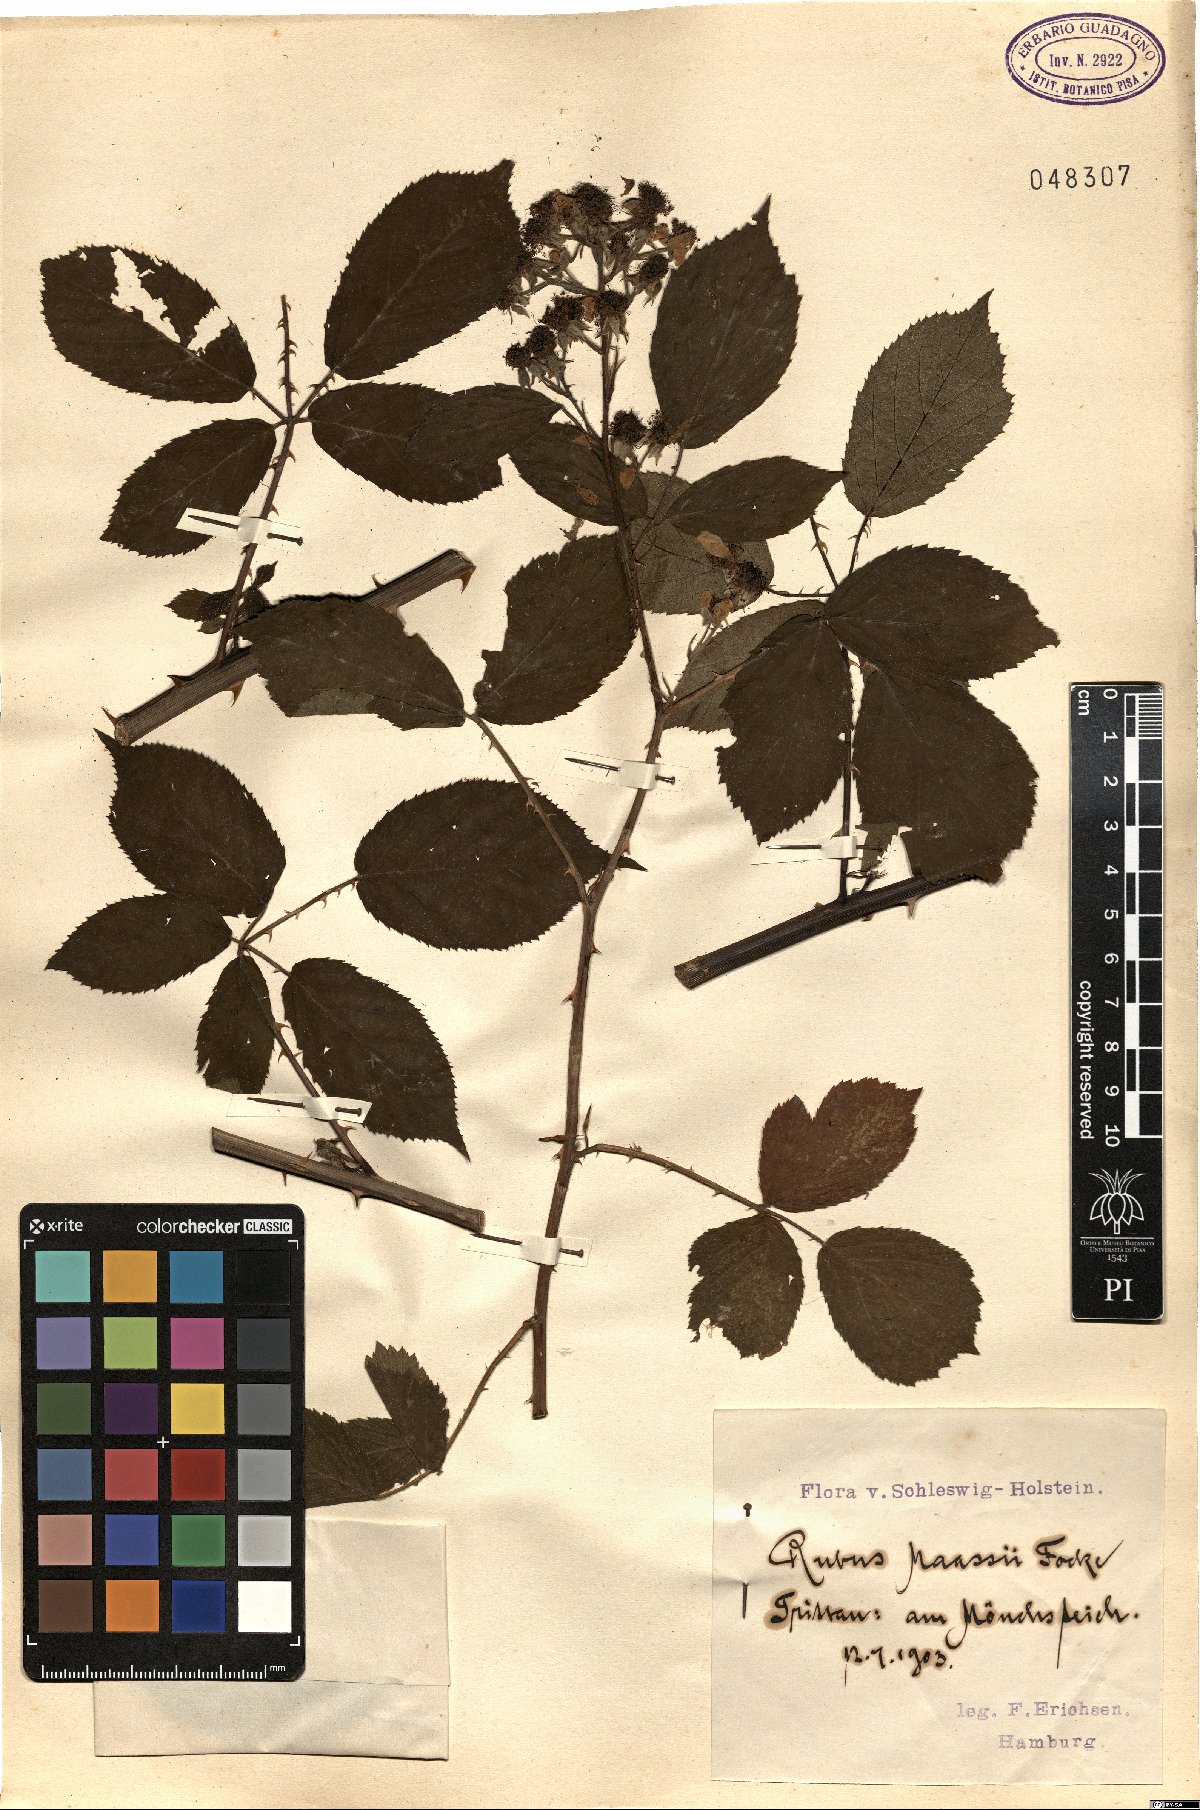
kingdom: Plantae
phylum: Tracheophyta
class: Magnoliopsida
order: Rosales
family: Rosaceae
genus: Rubus
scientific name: Rubus maassii
